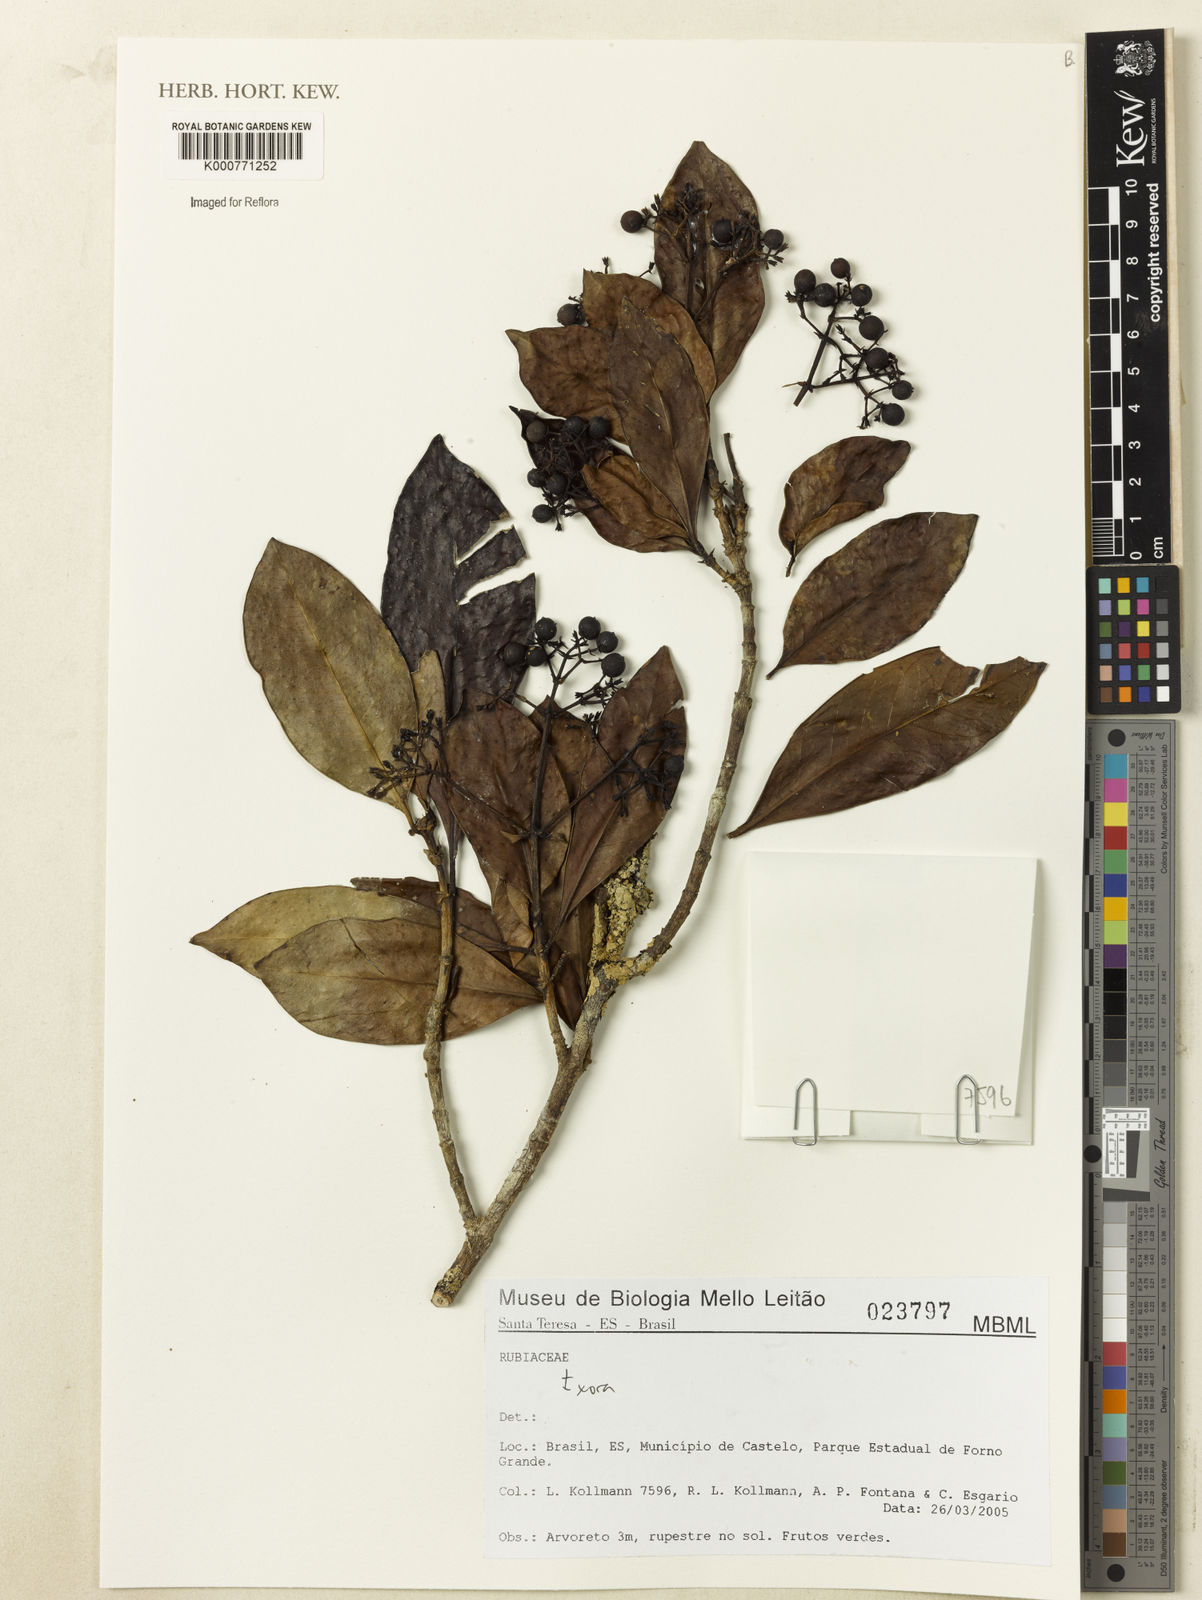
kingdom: Plantae
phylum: Tracheophyta
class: Magnoliopsida
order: Gentianales
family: Rubiaceae
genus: Ixora
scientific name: Ixora
